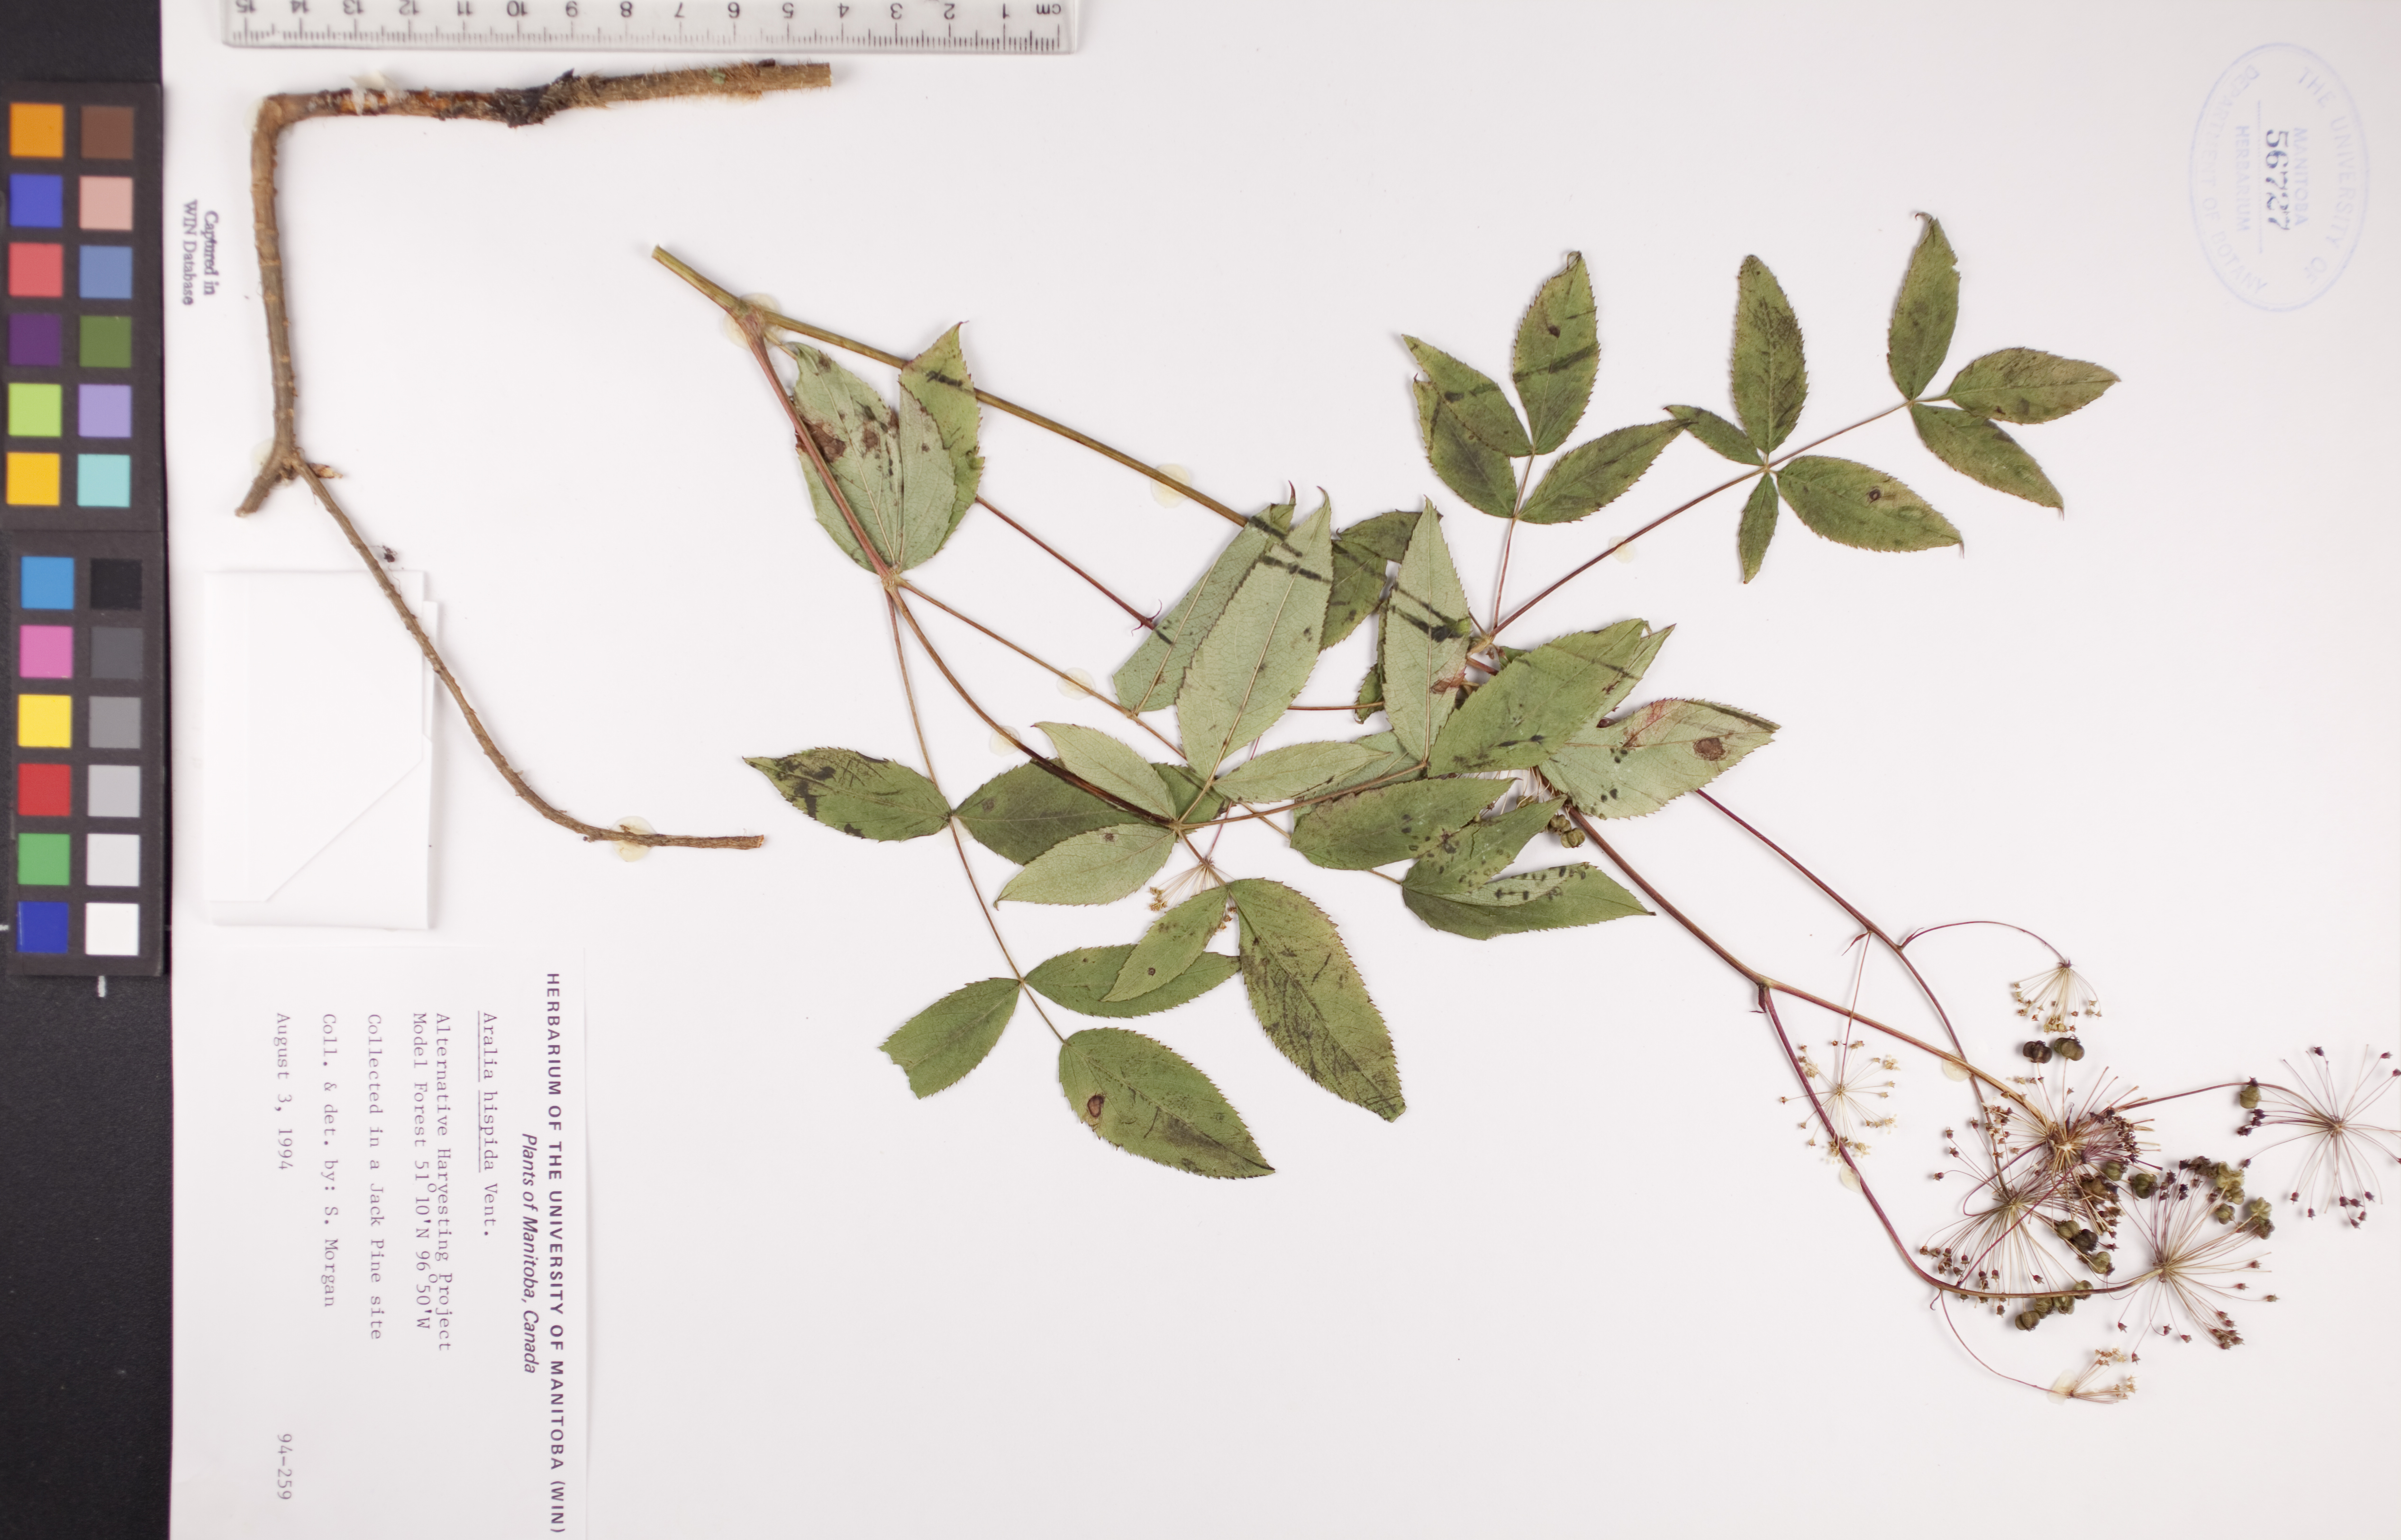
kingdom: Plantae
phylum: Tracheophyta
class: Magnoliopsida
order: Apiales
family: Araliaceae
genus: Aralia
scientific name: Aralia hispida
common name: Bristly sarsaparilla
